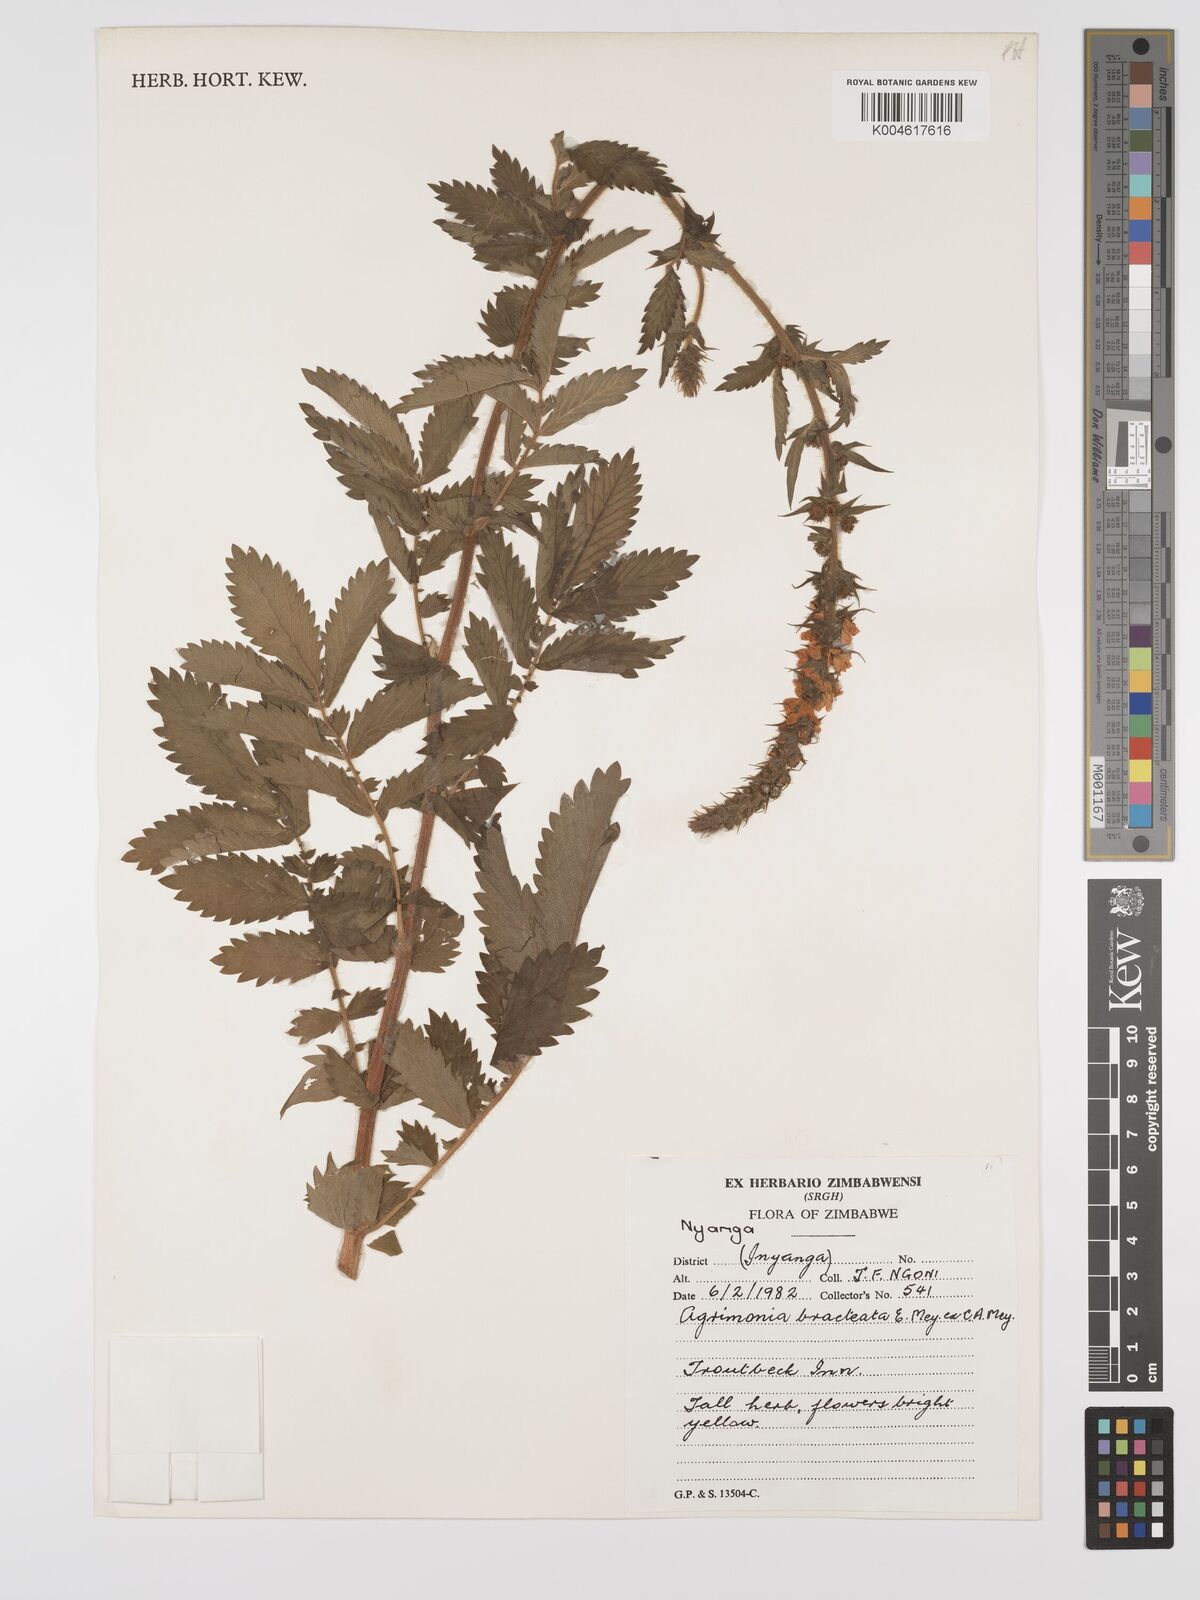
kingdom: Plantae
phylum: Tracheophyta
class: Magnoliopsida
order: Rosales
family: Rosaceae
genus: Agrimonia
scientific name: Agrimonia bracteata
